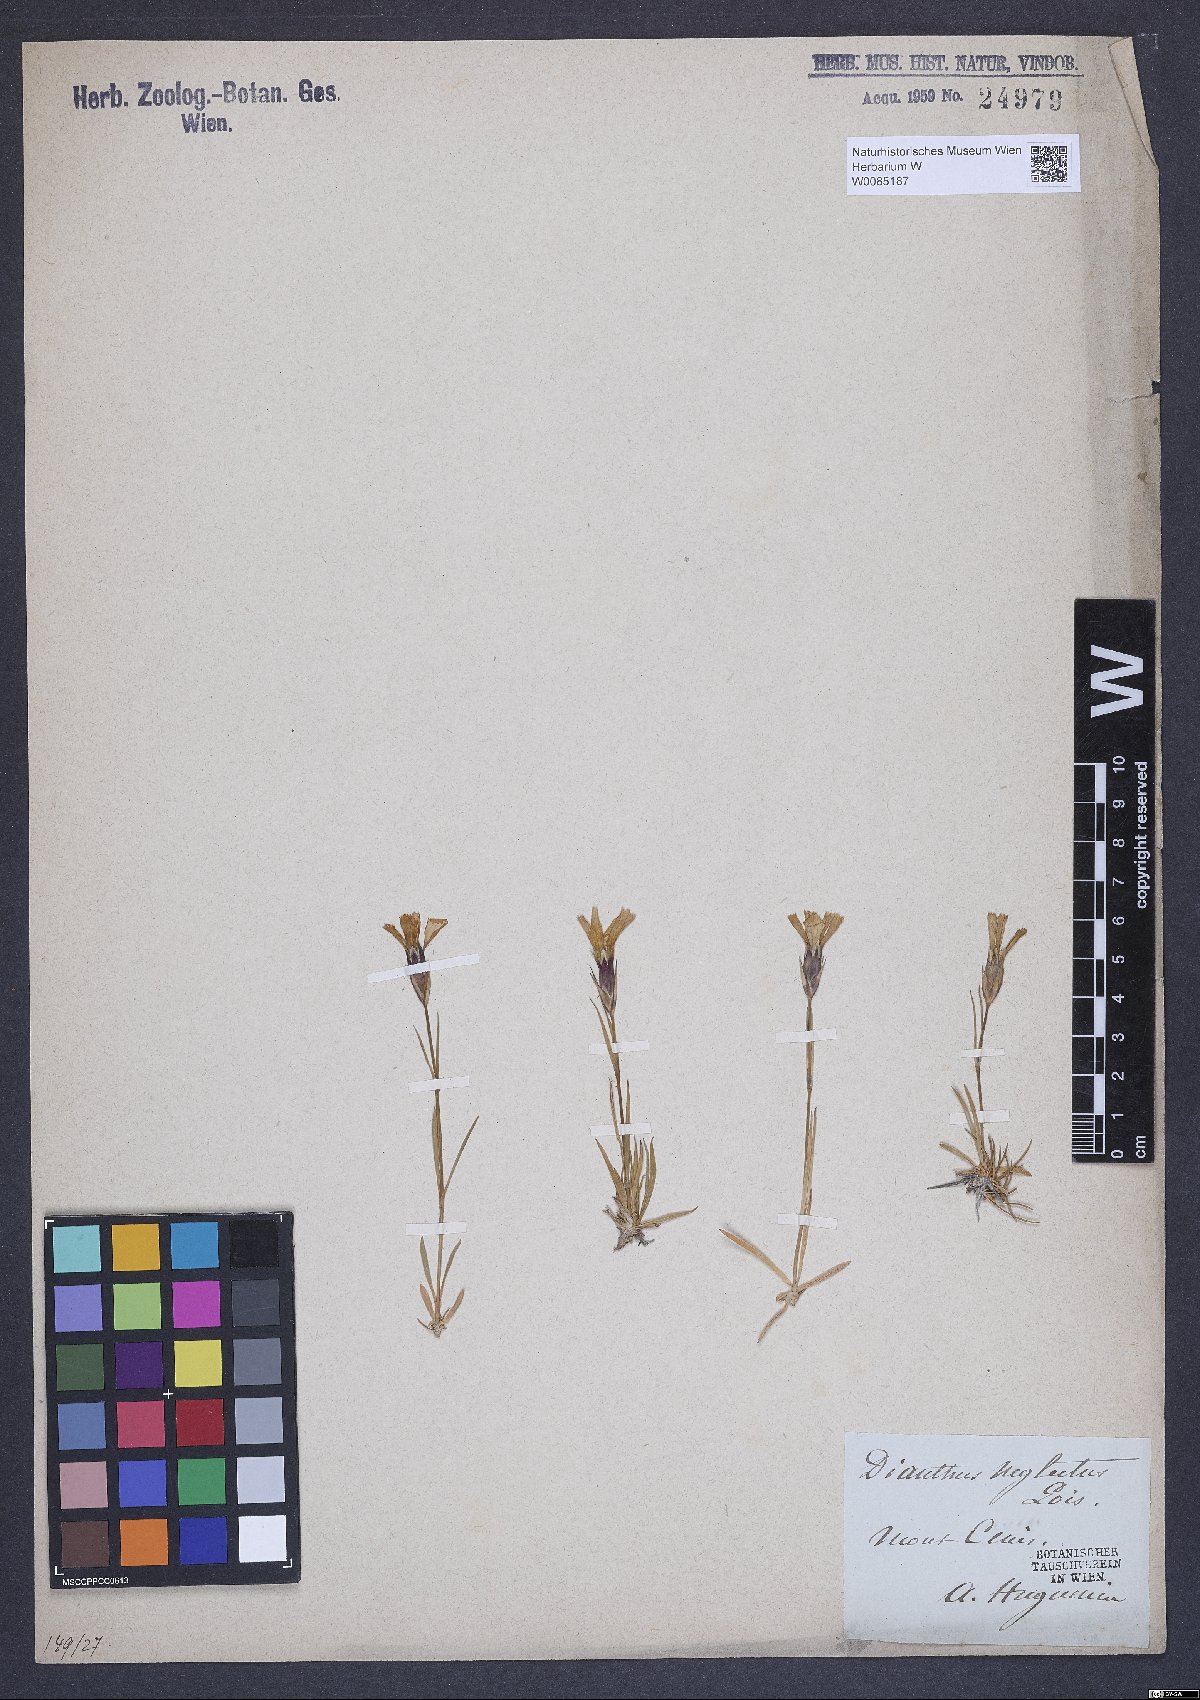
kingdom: Plantae
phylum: Tracheophyta
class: Magnoliopsida
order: Caryophyllales
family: Caryophyllaceae
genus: Dianthus
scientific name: Dianthus pavonius
